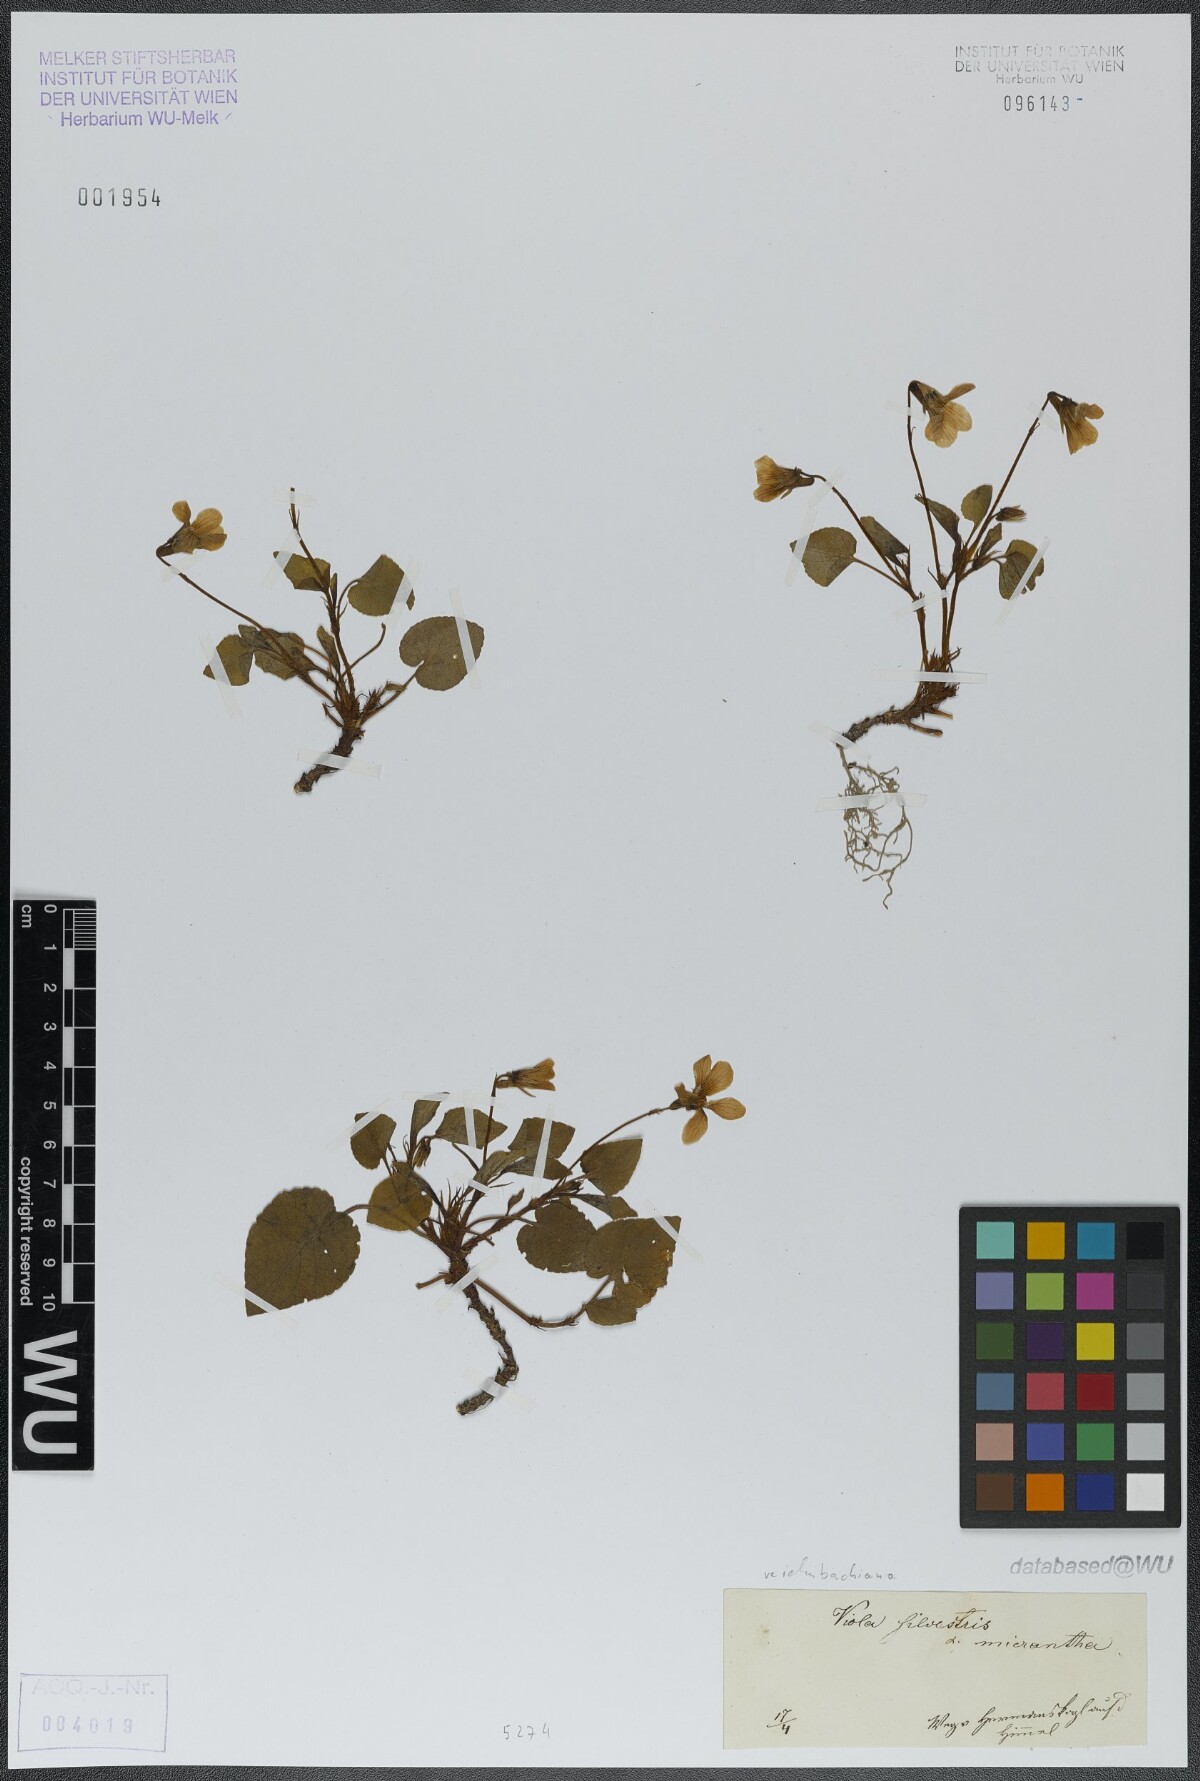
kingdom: Plantae
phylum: Tracheophyta
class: Magnoliopsida
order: Malpighiales
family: Violaceae
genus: Viola
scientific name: Viola reichenbachiana
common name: Early dog-violet
